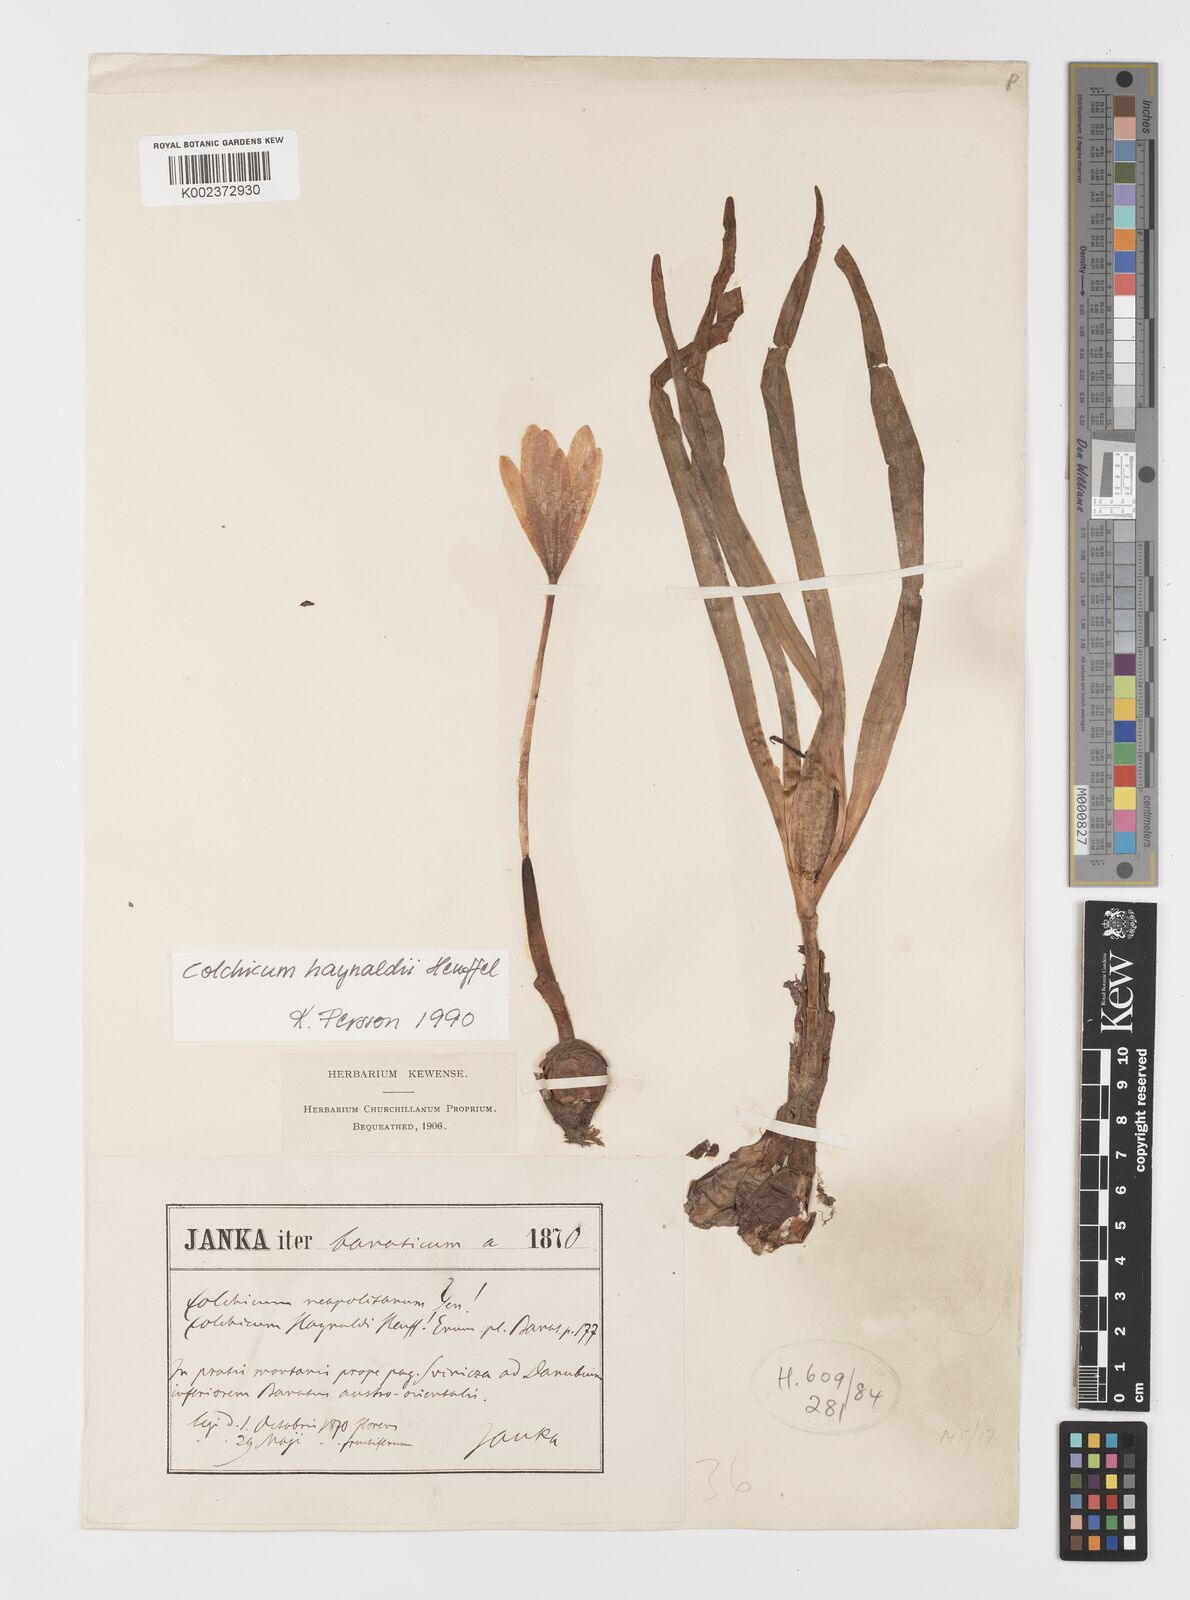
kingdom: Plantae
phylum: Tracheophyta
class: Liliopsida
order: Liliales
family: Colchicaceae
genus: Colchicum
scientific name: Colchicum haynaldii
